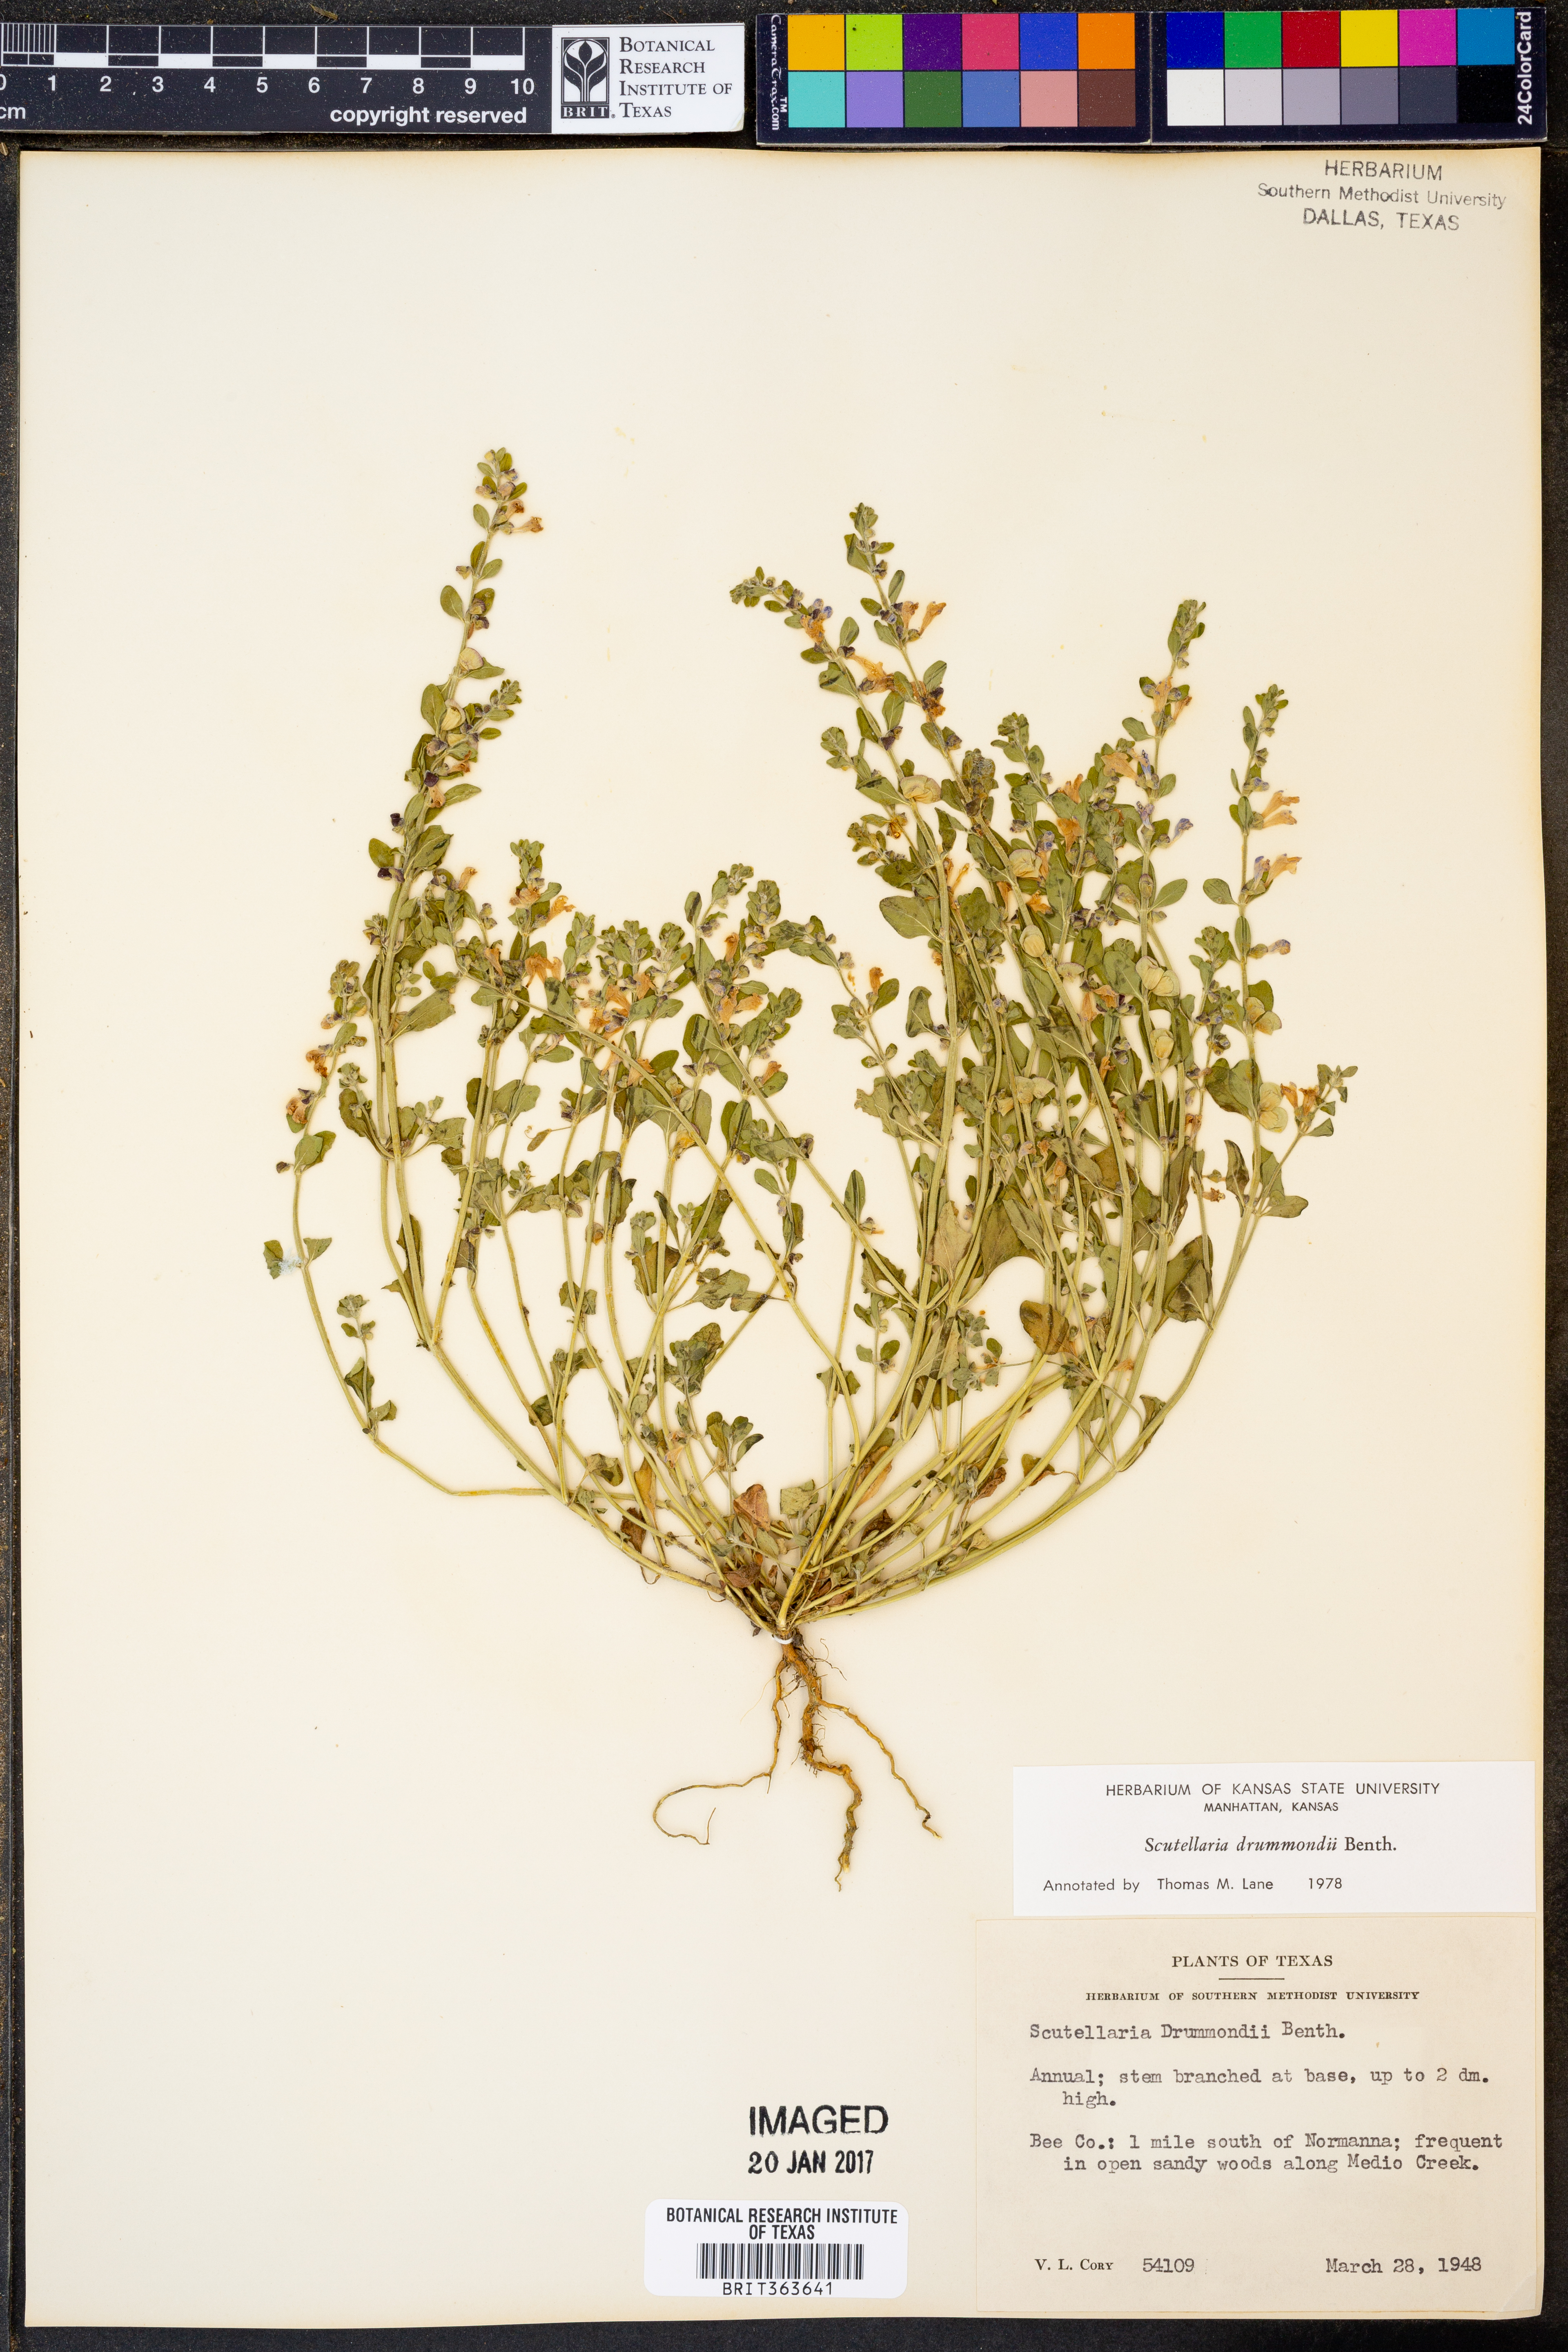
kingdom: Plantae
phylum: Tracheophyta
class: Magnoliopsida
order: Lamiales
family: Lamiaceae
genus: Scutellaria
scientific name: Scutellaria drummondii
